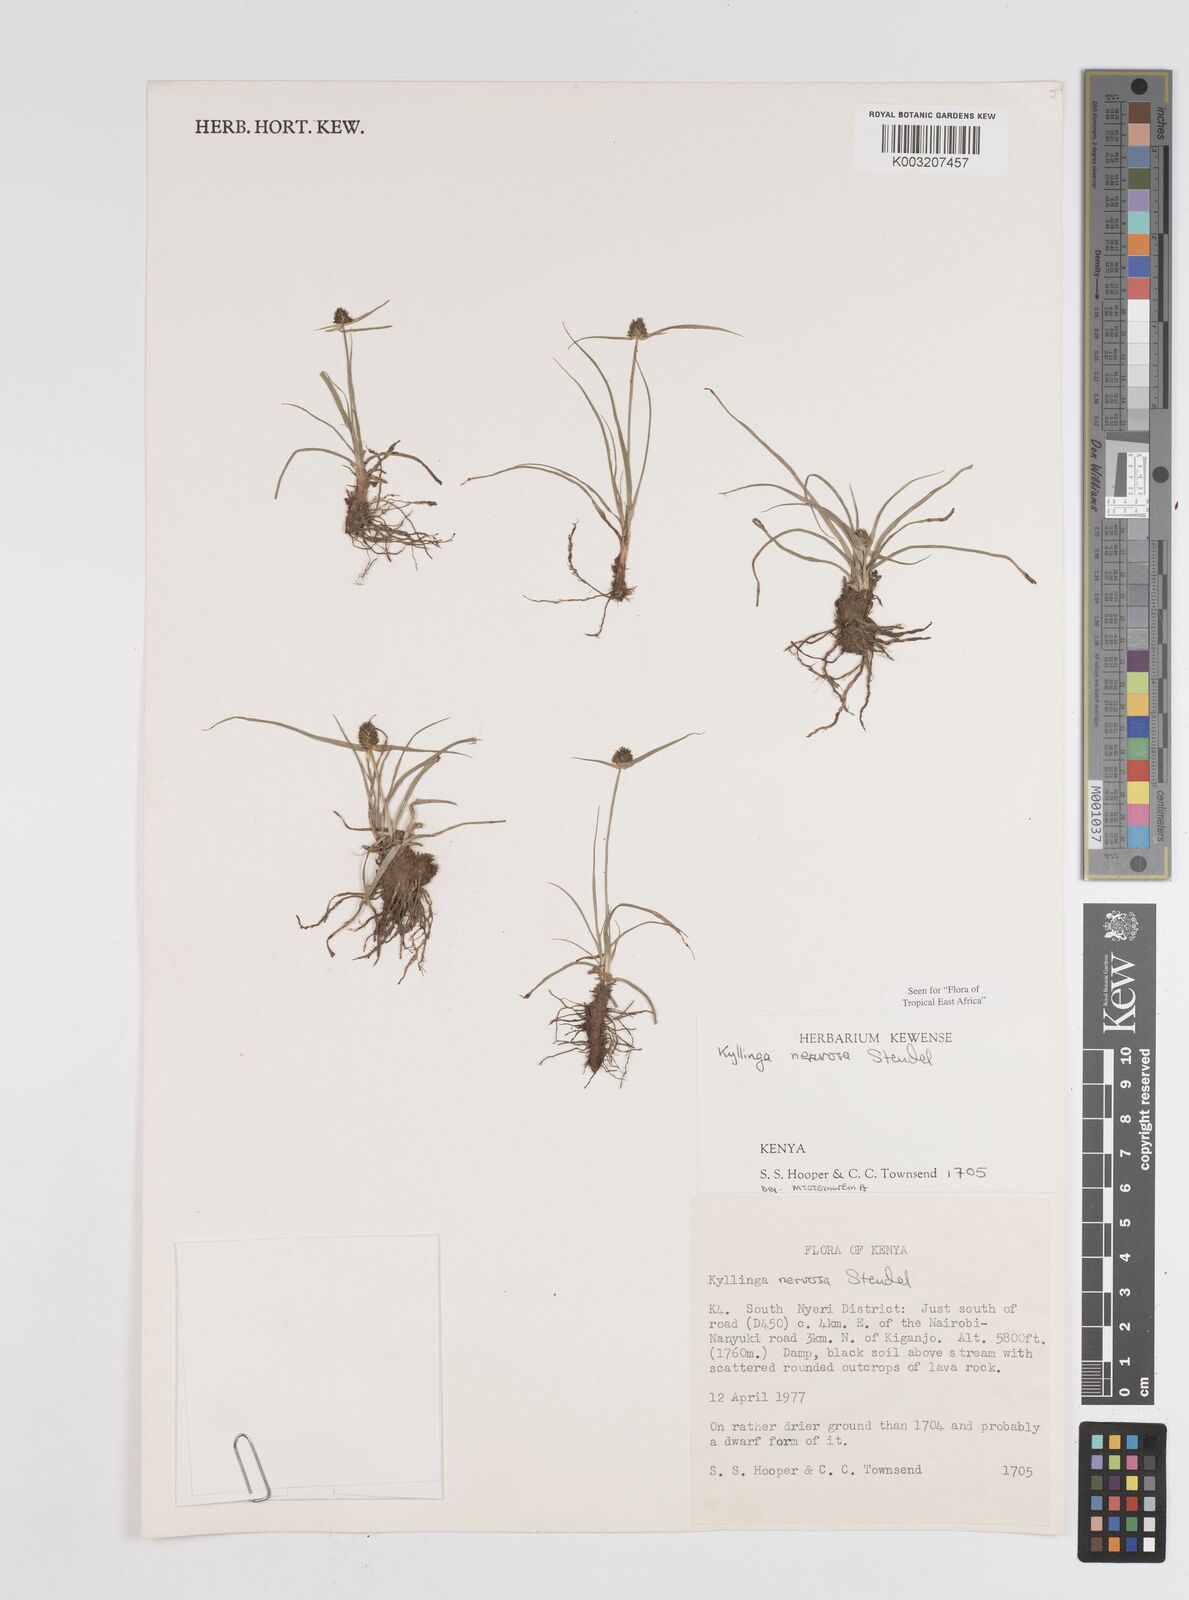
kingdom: Plantae
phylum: Tracheophyta
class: Liliopsida
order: Poales
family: Cyperaceae
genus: Cyperus
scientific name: Cyperus
